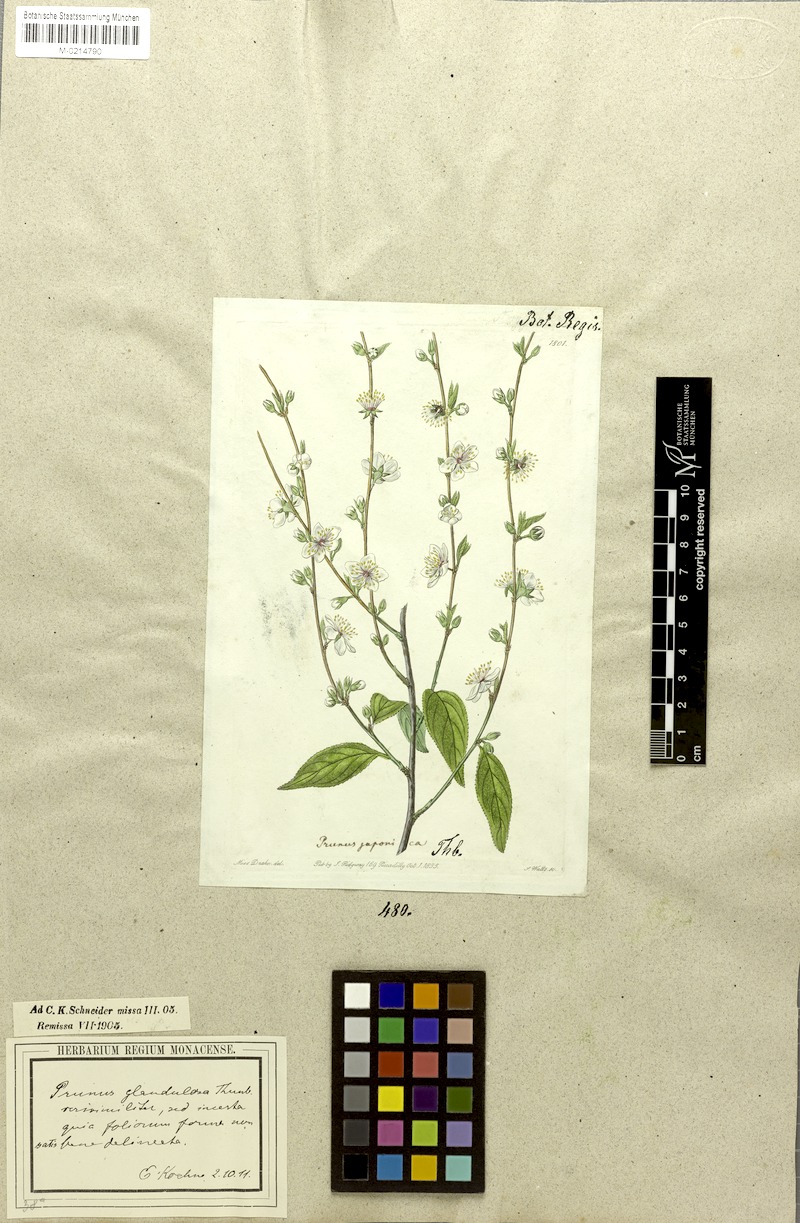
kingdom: Plantae
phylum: Tracheophyta
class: Magnoliopsida
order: Rosales
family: Rosaceae
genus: Prunus
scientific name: Prunus glandulosa
